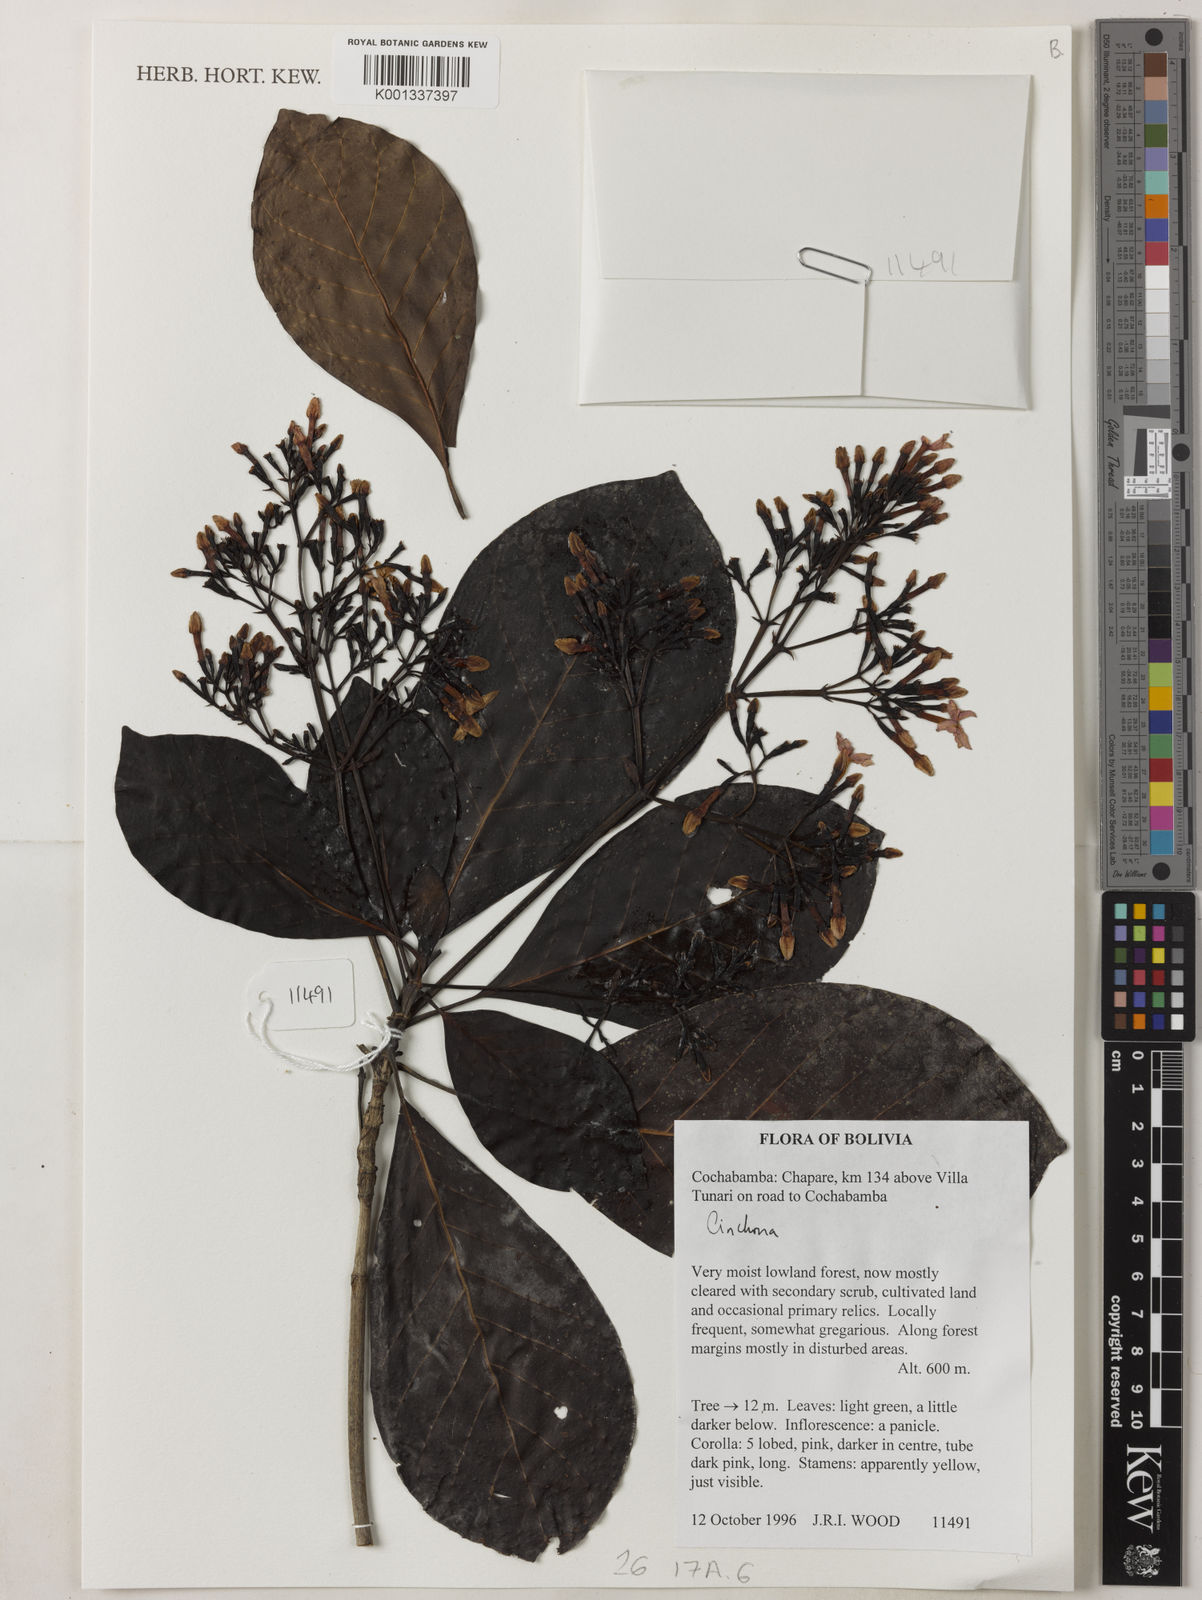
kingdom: Plantae
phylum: Tracheophyta
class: Magnoliopsida
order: Gentianales
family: Rubiaceae
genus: Cinchona
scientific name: Cinchona
